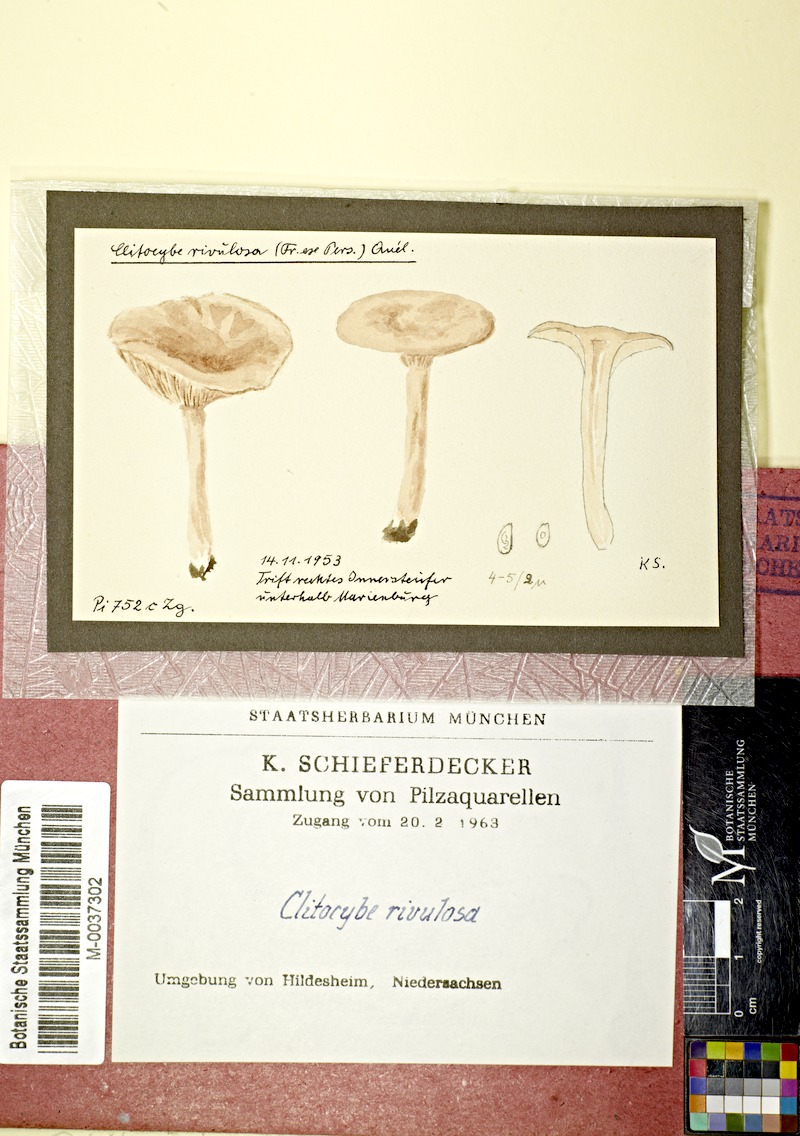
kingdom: Fungi
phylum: Basidiomycota
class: Agaricomycetes
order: Agaricales
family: Tricholomataceae
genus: Clitocybe
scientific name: Clitocybe rivulosa
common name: Cracking clitocybe
